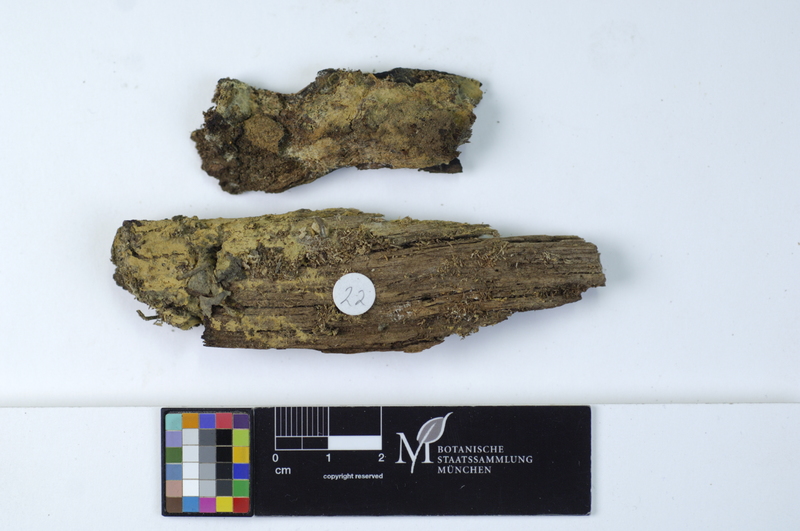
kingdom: Plantae
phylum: Tracheophyta
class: Pinopsida
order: Pinales
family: Pinaceae
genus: Pinus
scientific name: Pinus
